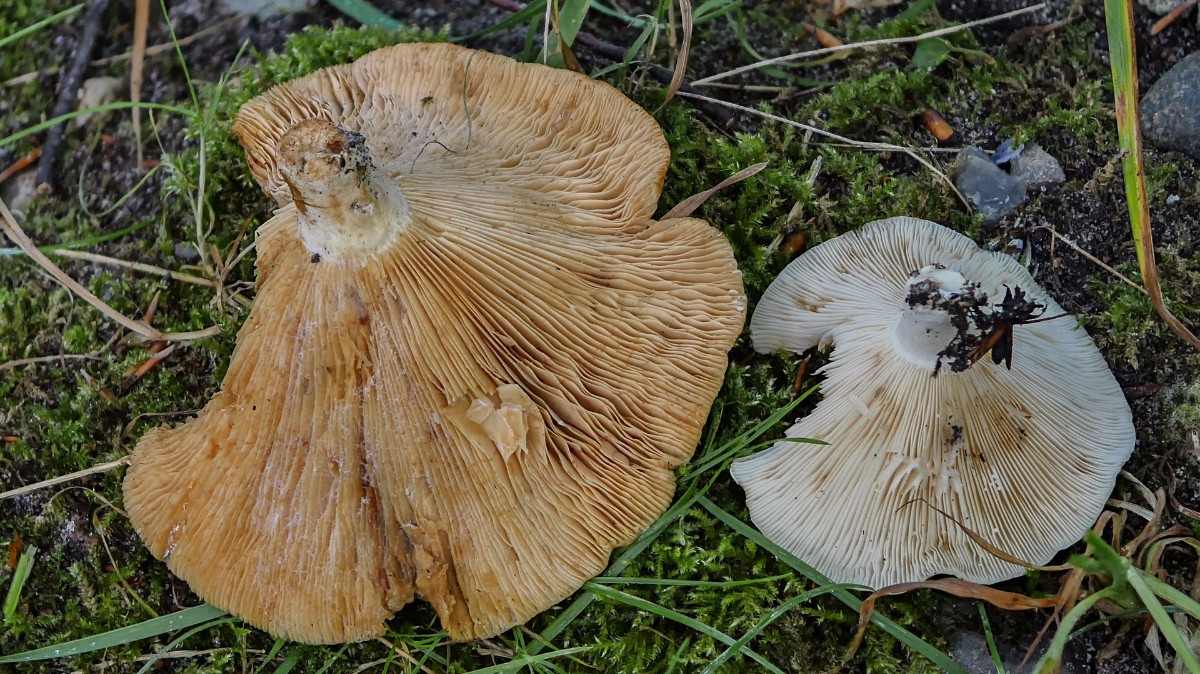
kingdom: Fungi
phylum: Basidiomycota
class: Agaricomycetes
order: Russulales
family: Russulaceae
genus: Lactarius
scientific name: Lactarius evosmus
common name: bæltet mælkehat
